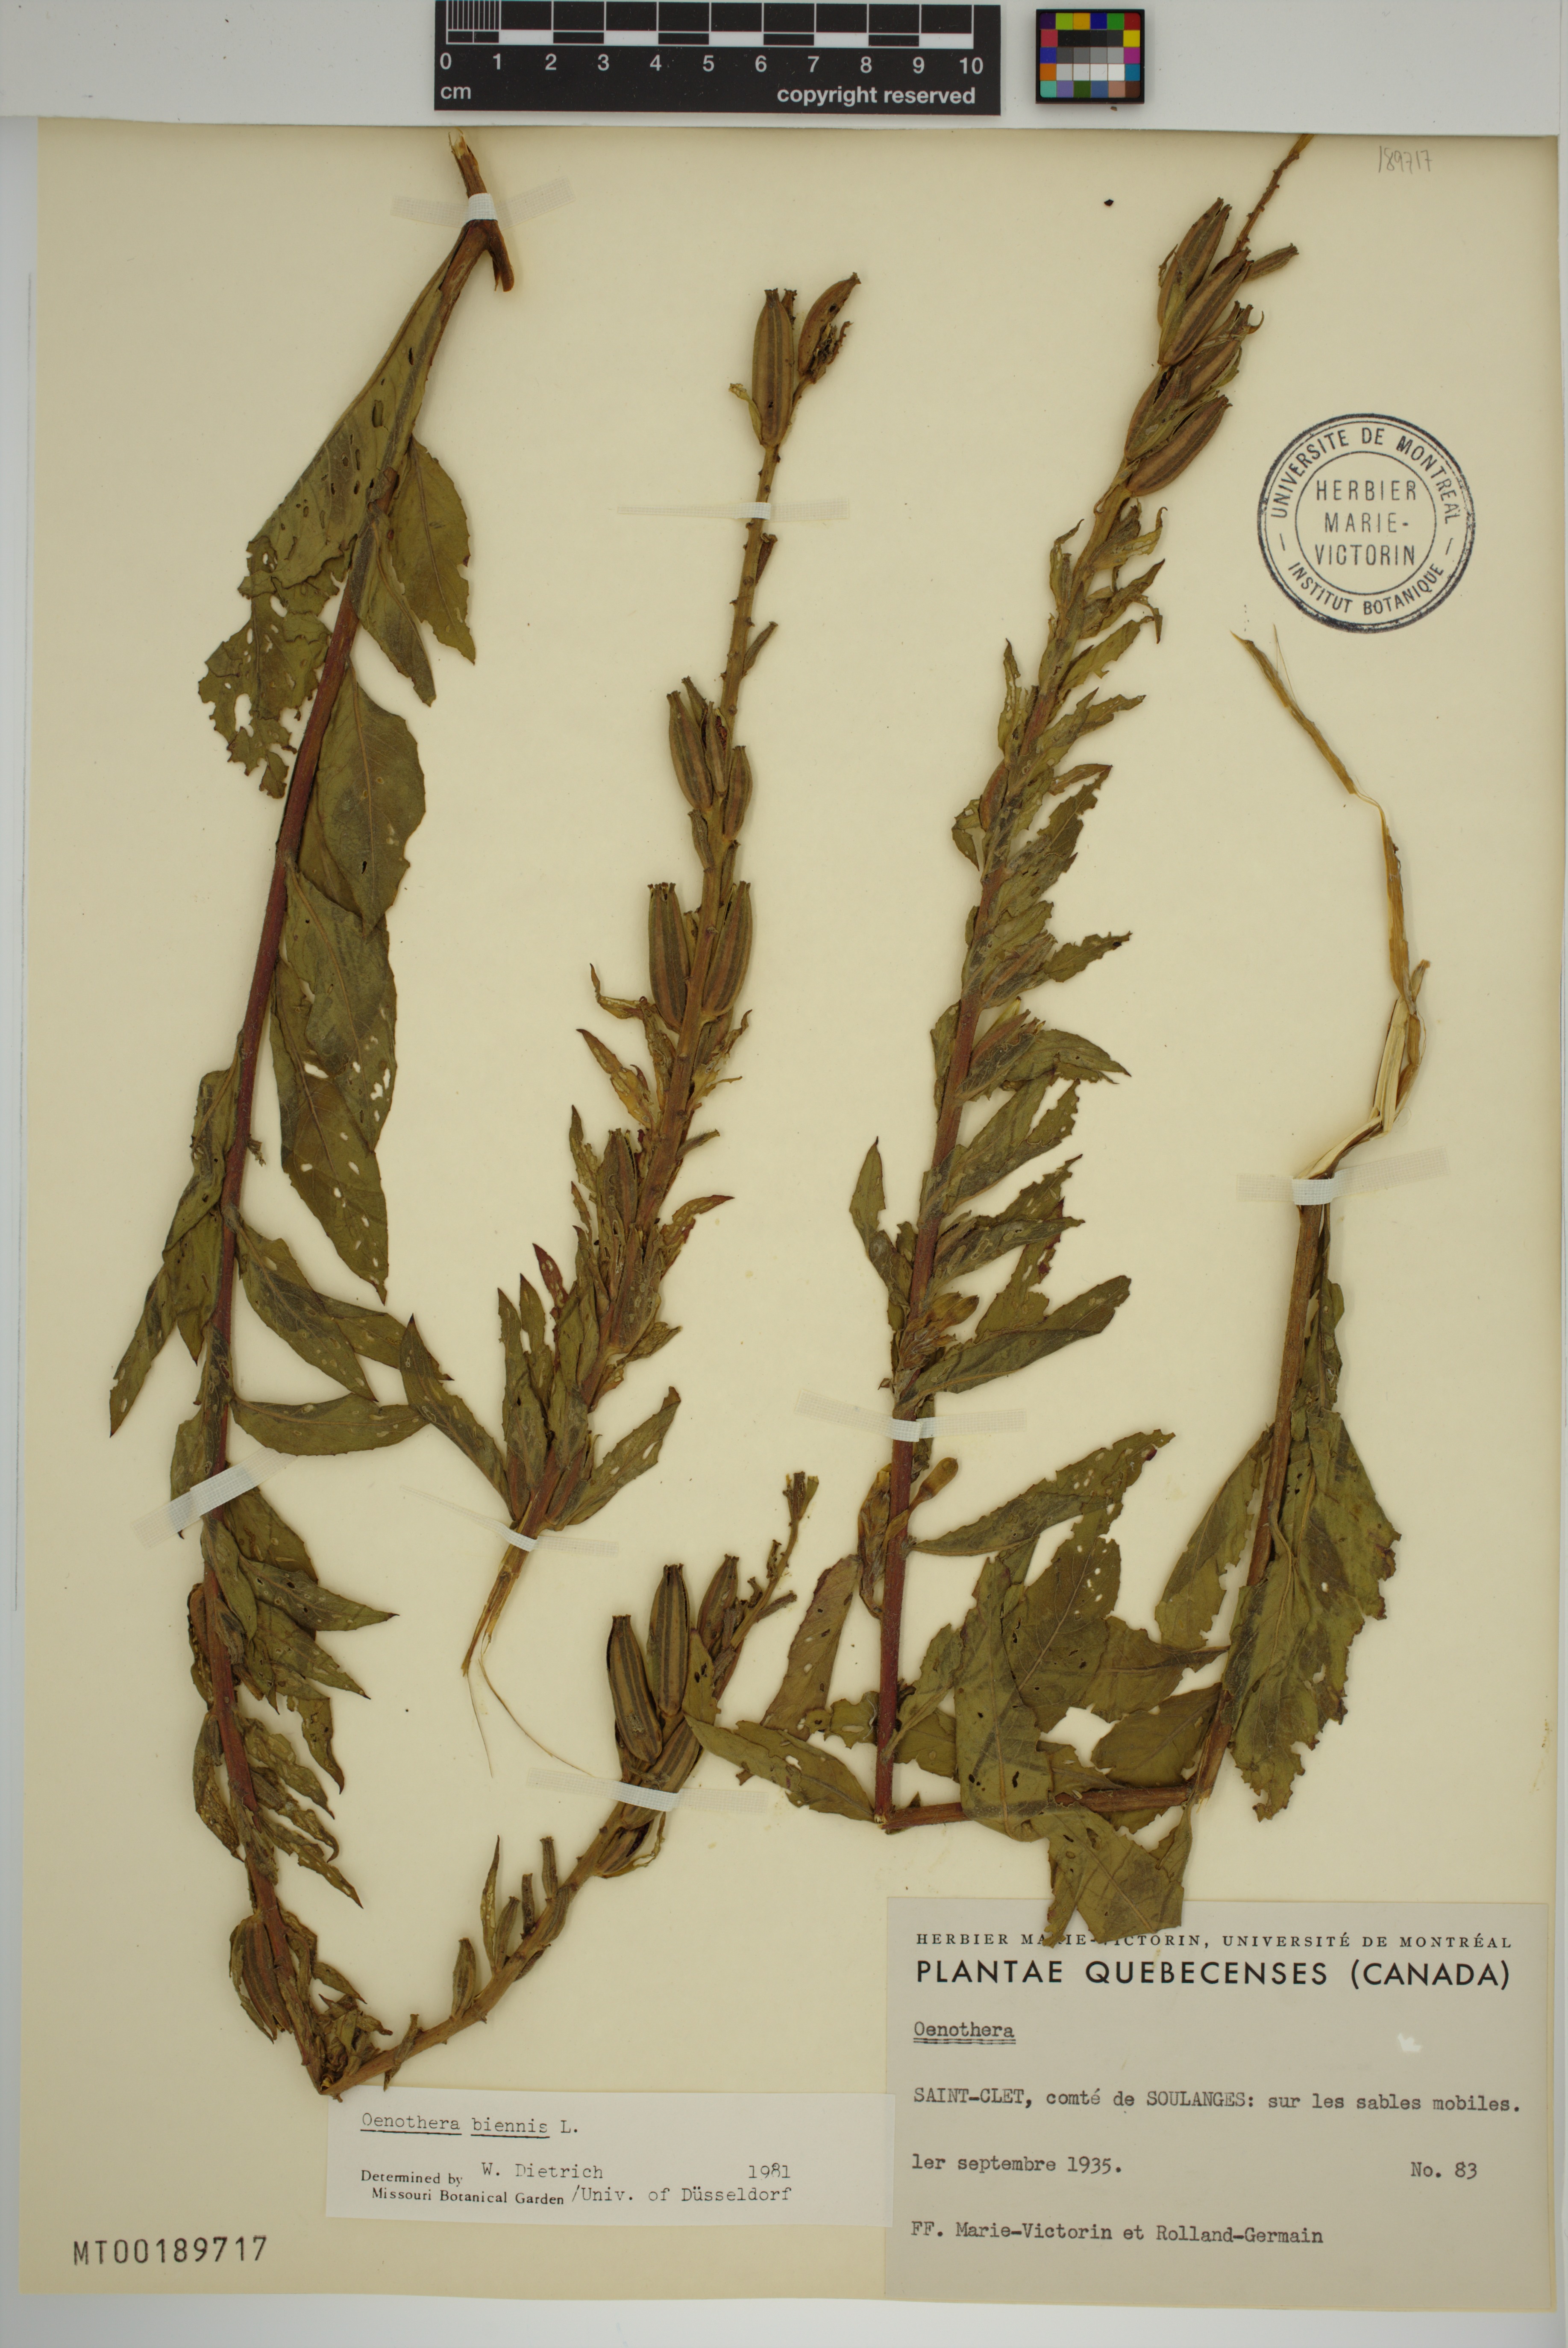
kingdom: Plantae
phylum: Tracheophyta
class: Magnoliopsida
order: Myrtales
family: Onagraceae
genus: Oenothera
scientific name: Oenothera biennis
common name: Common evening-primrose
